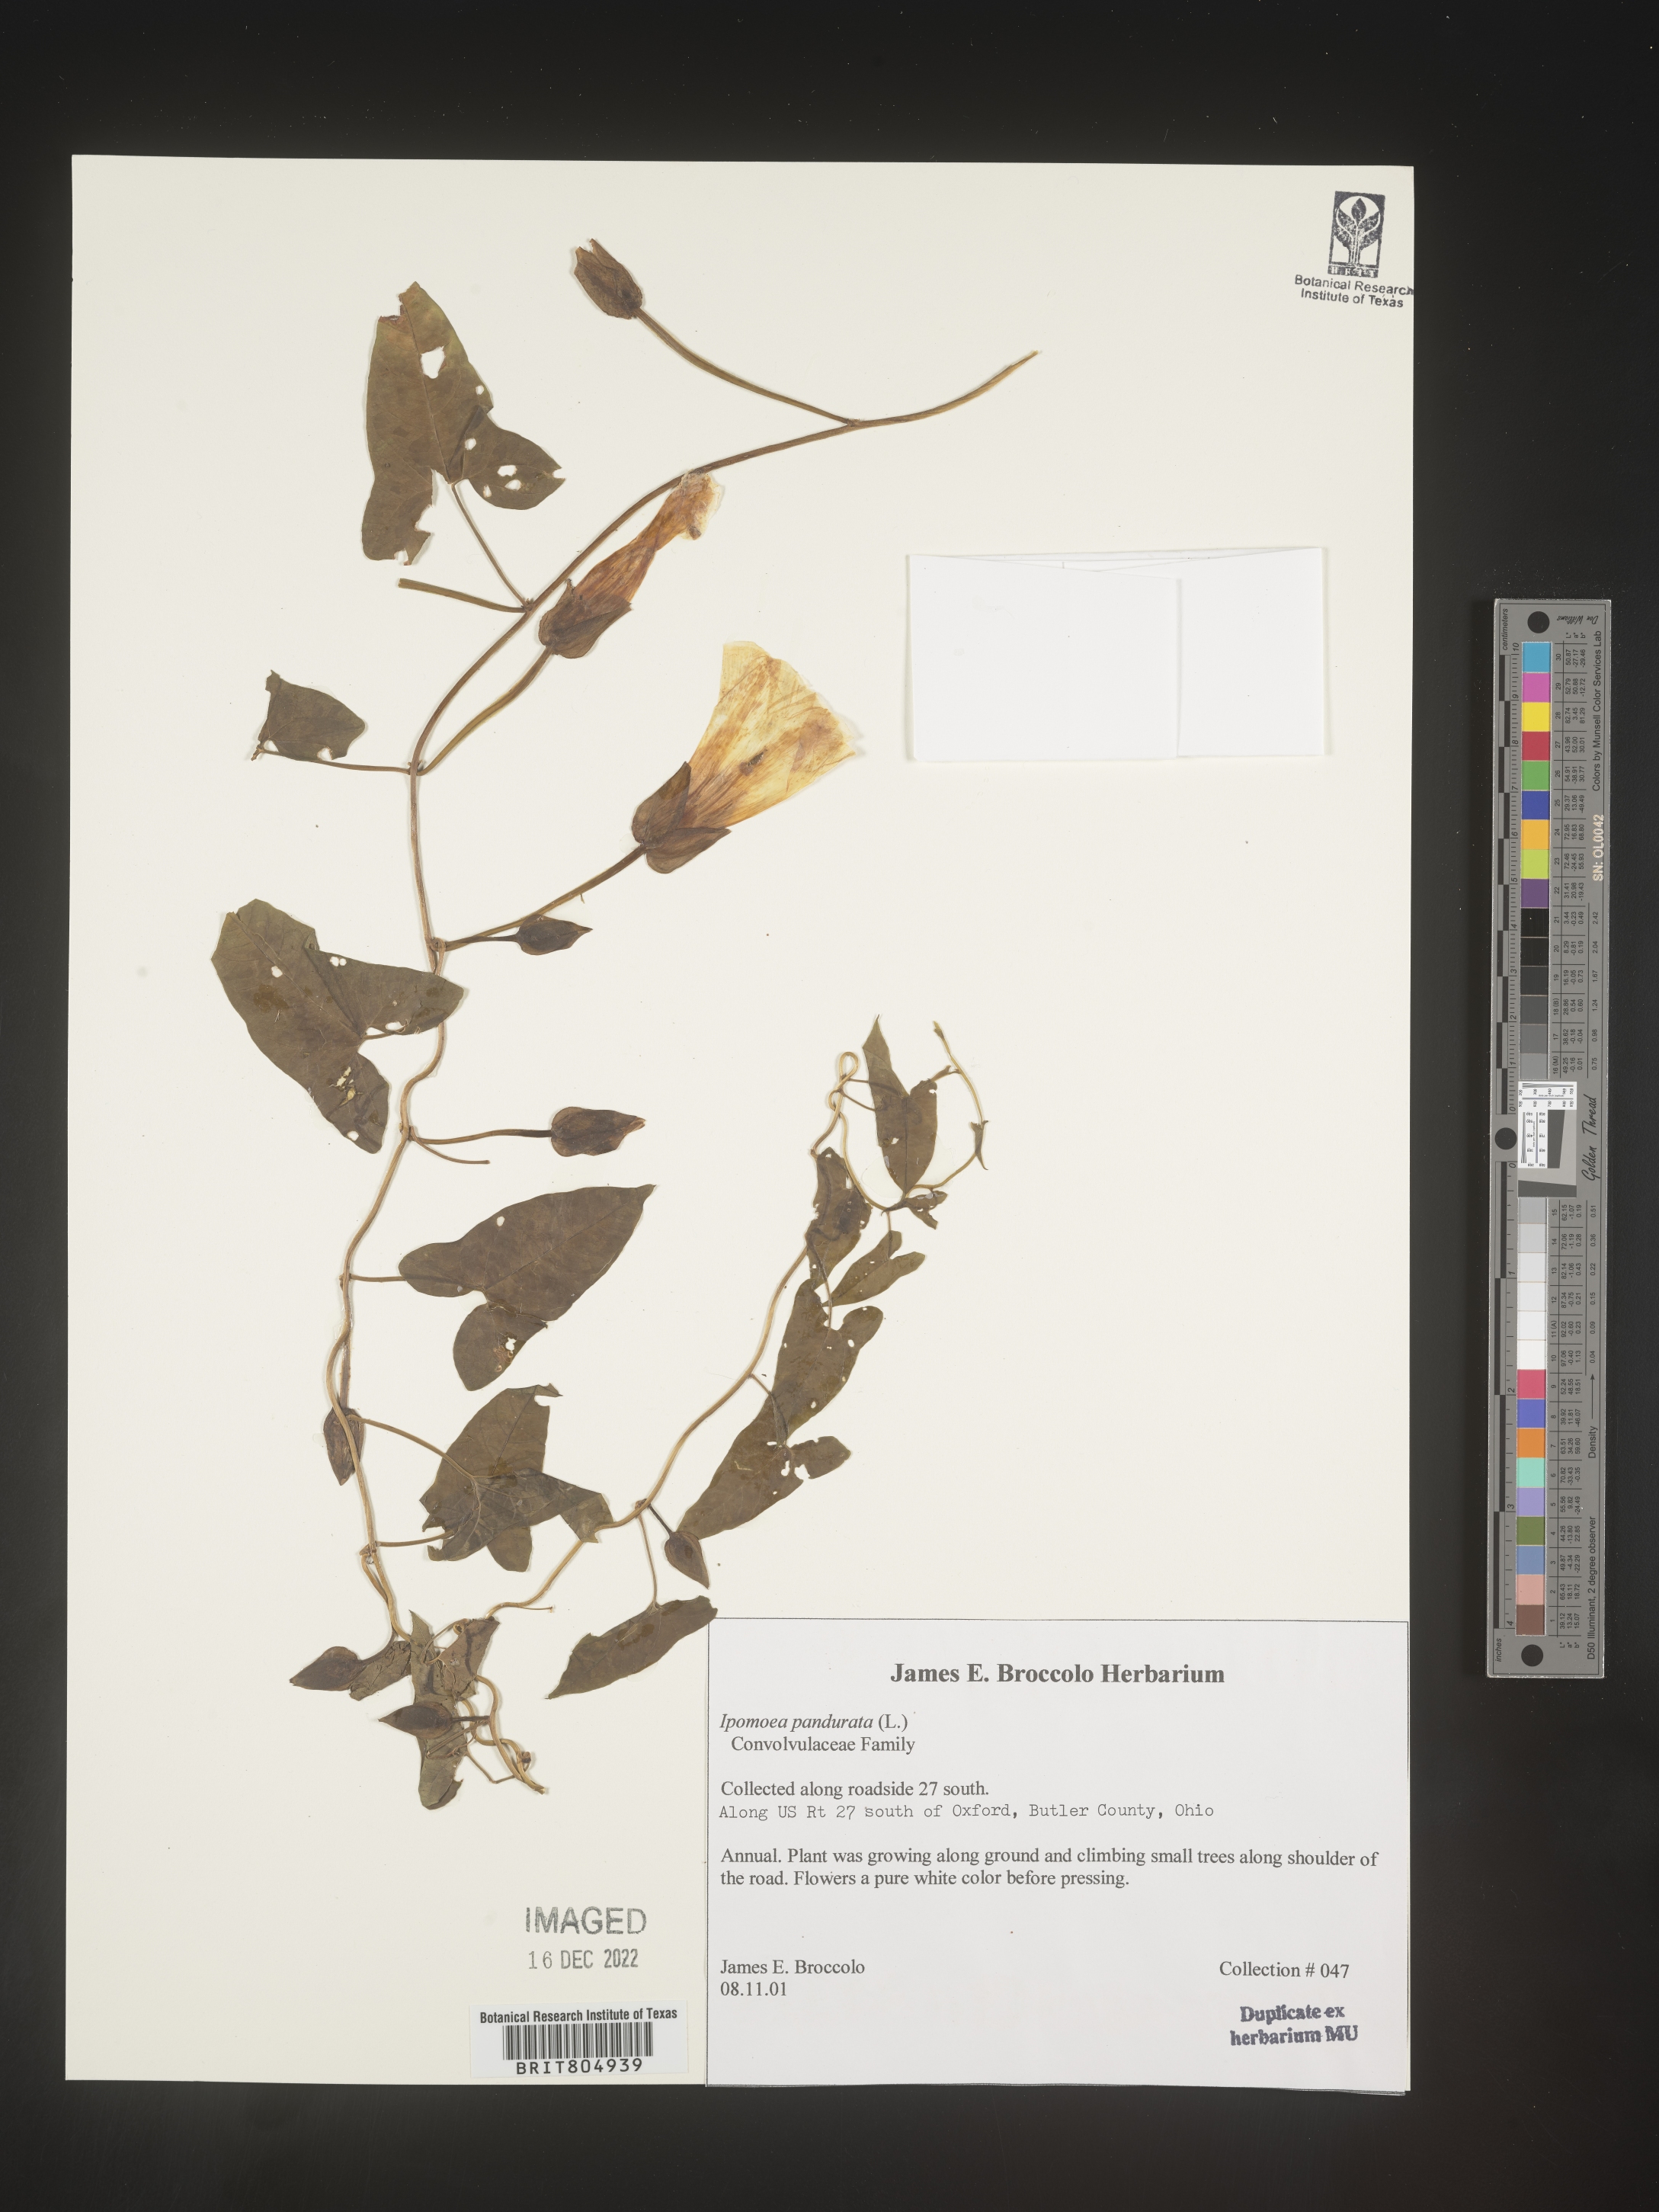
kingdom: Plantae
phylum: Tracheophyta
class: Magnoliopsida
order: Solanales
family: Convolvulaceae
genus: Ipomoea
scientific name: Ipomoea pandurata
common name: Man-of-the-earth
